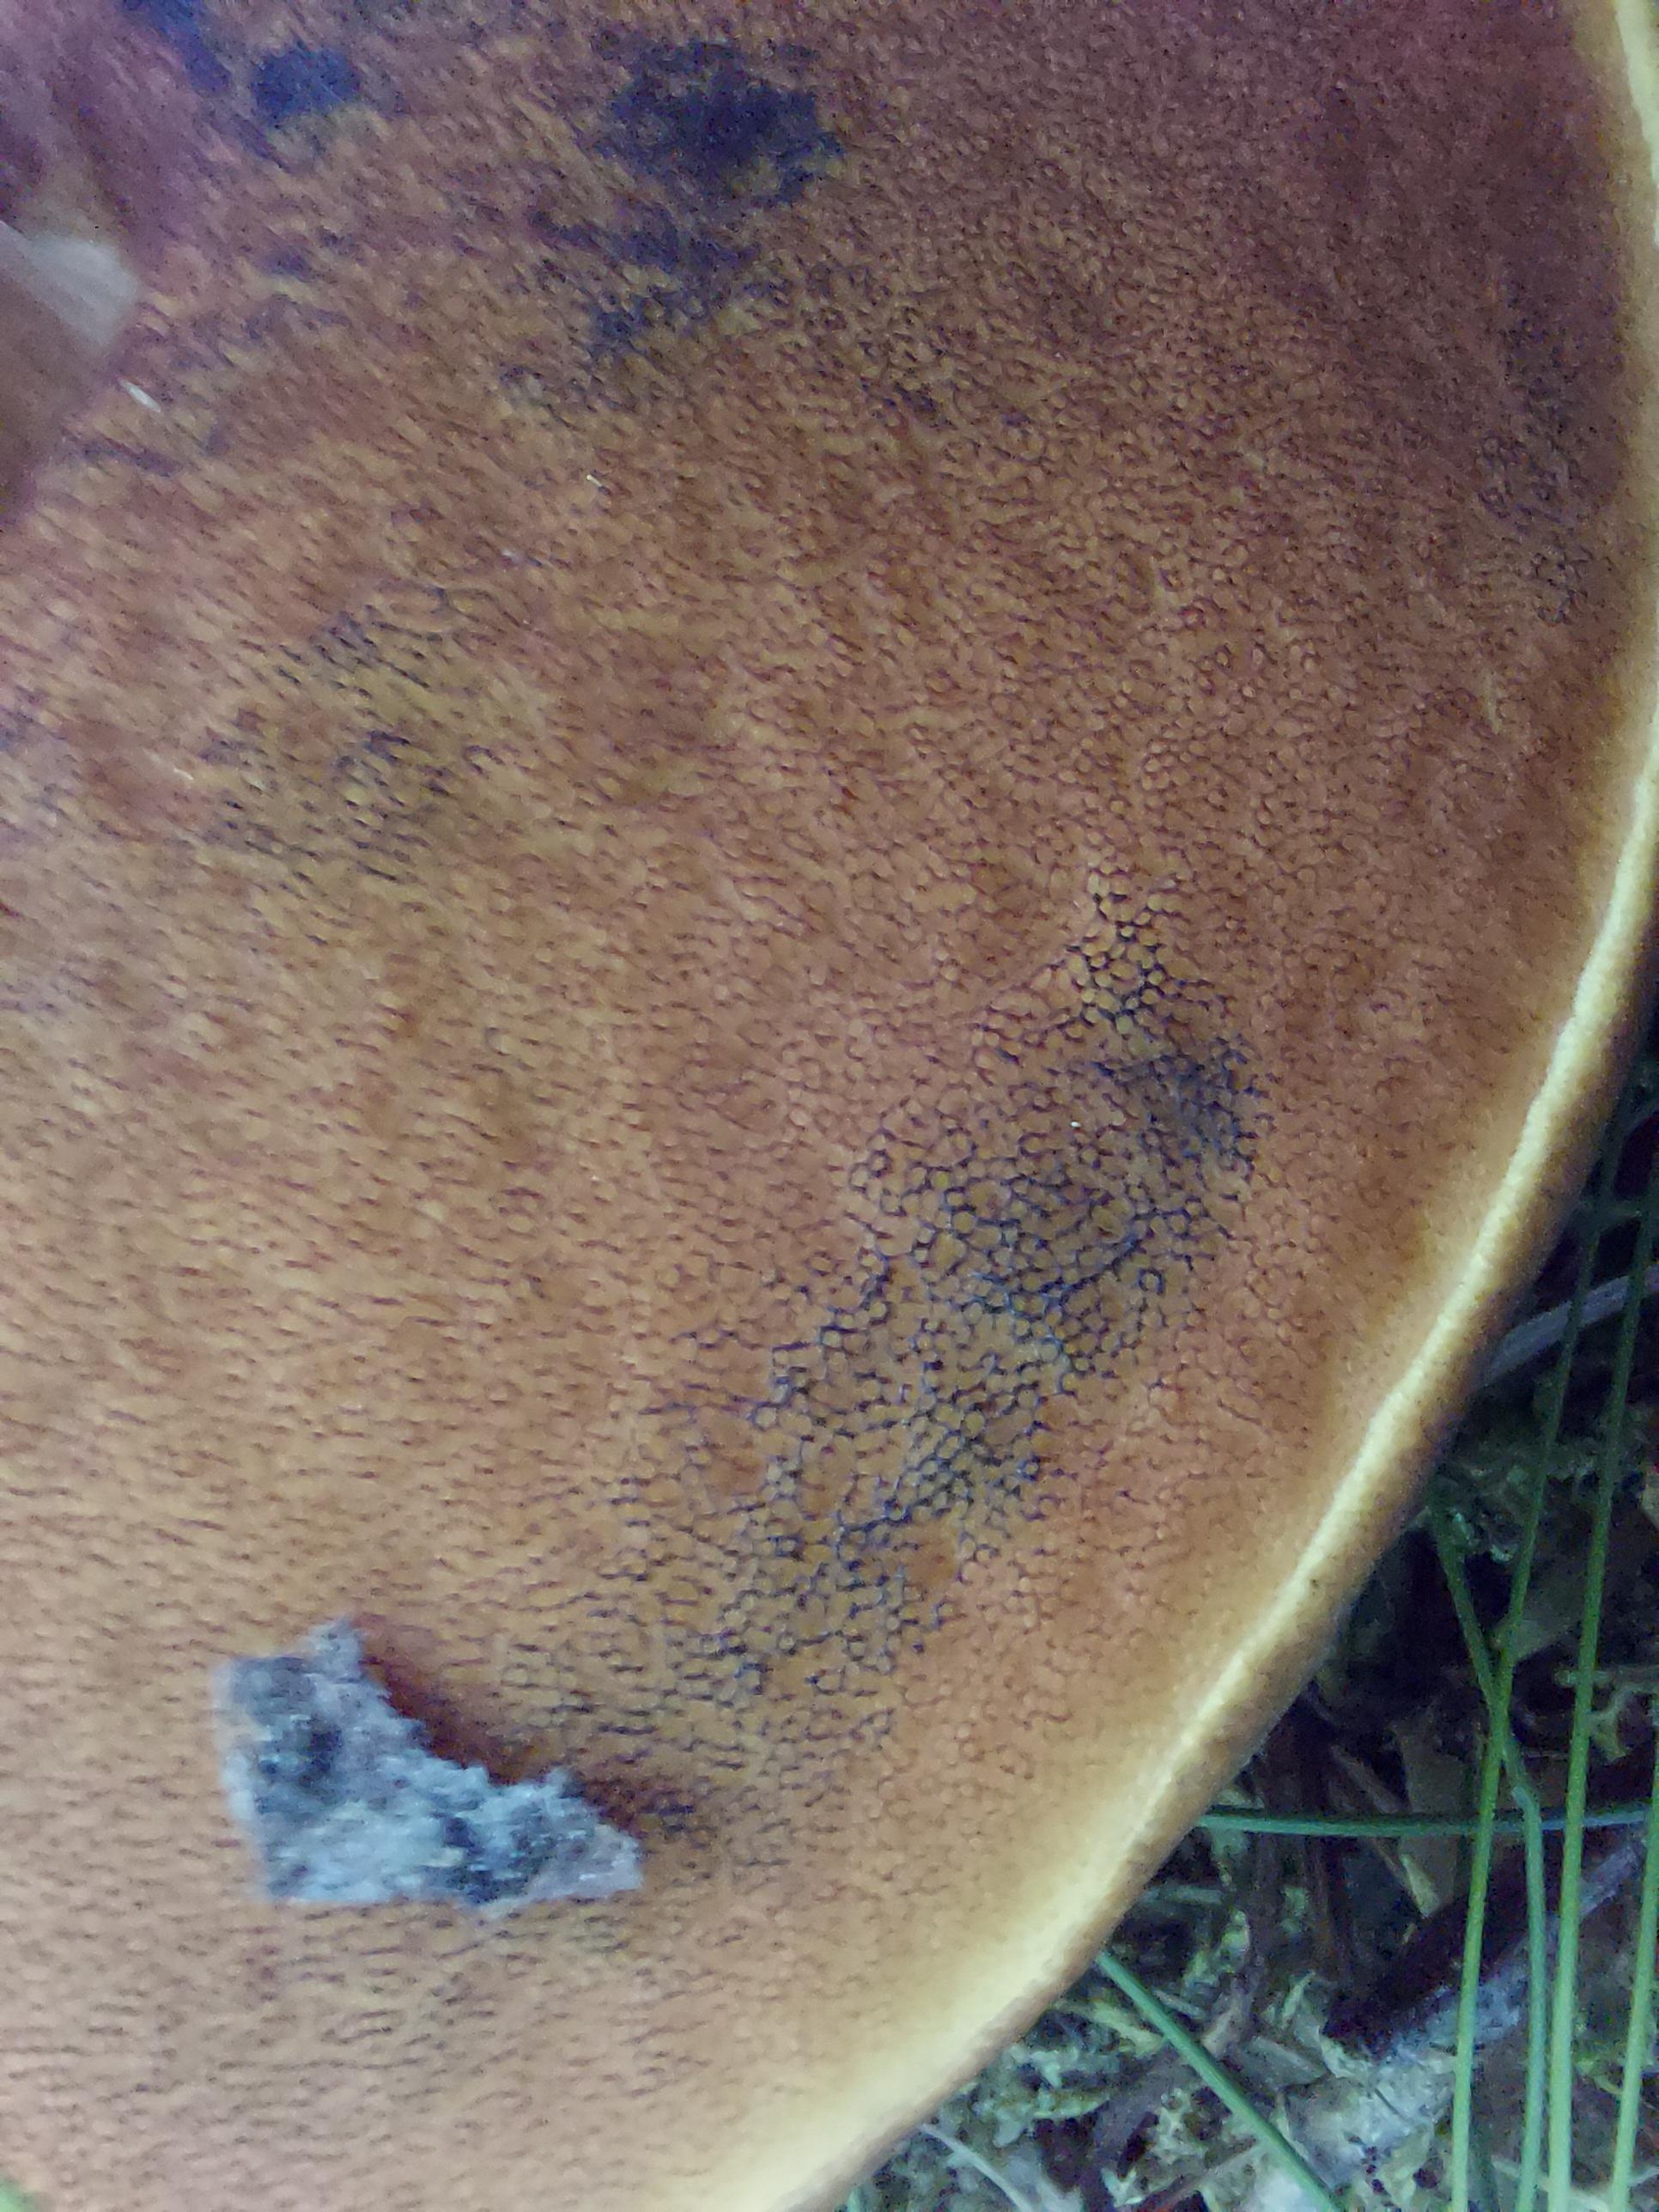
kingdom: Fungi
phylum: Basidiomycota
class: Agaricomycetes
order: Boletales
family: Boletaceae
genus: Neoboletus
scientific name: Neoboletus erythropus
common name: punktstokket indigorørhat
